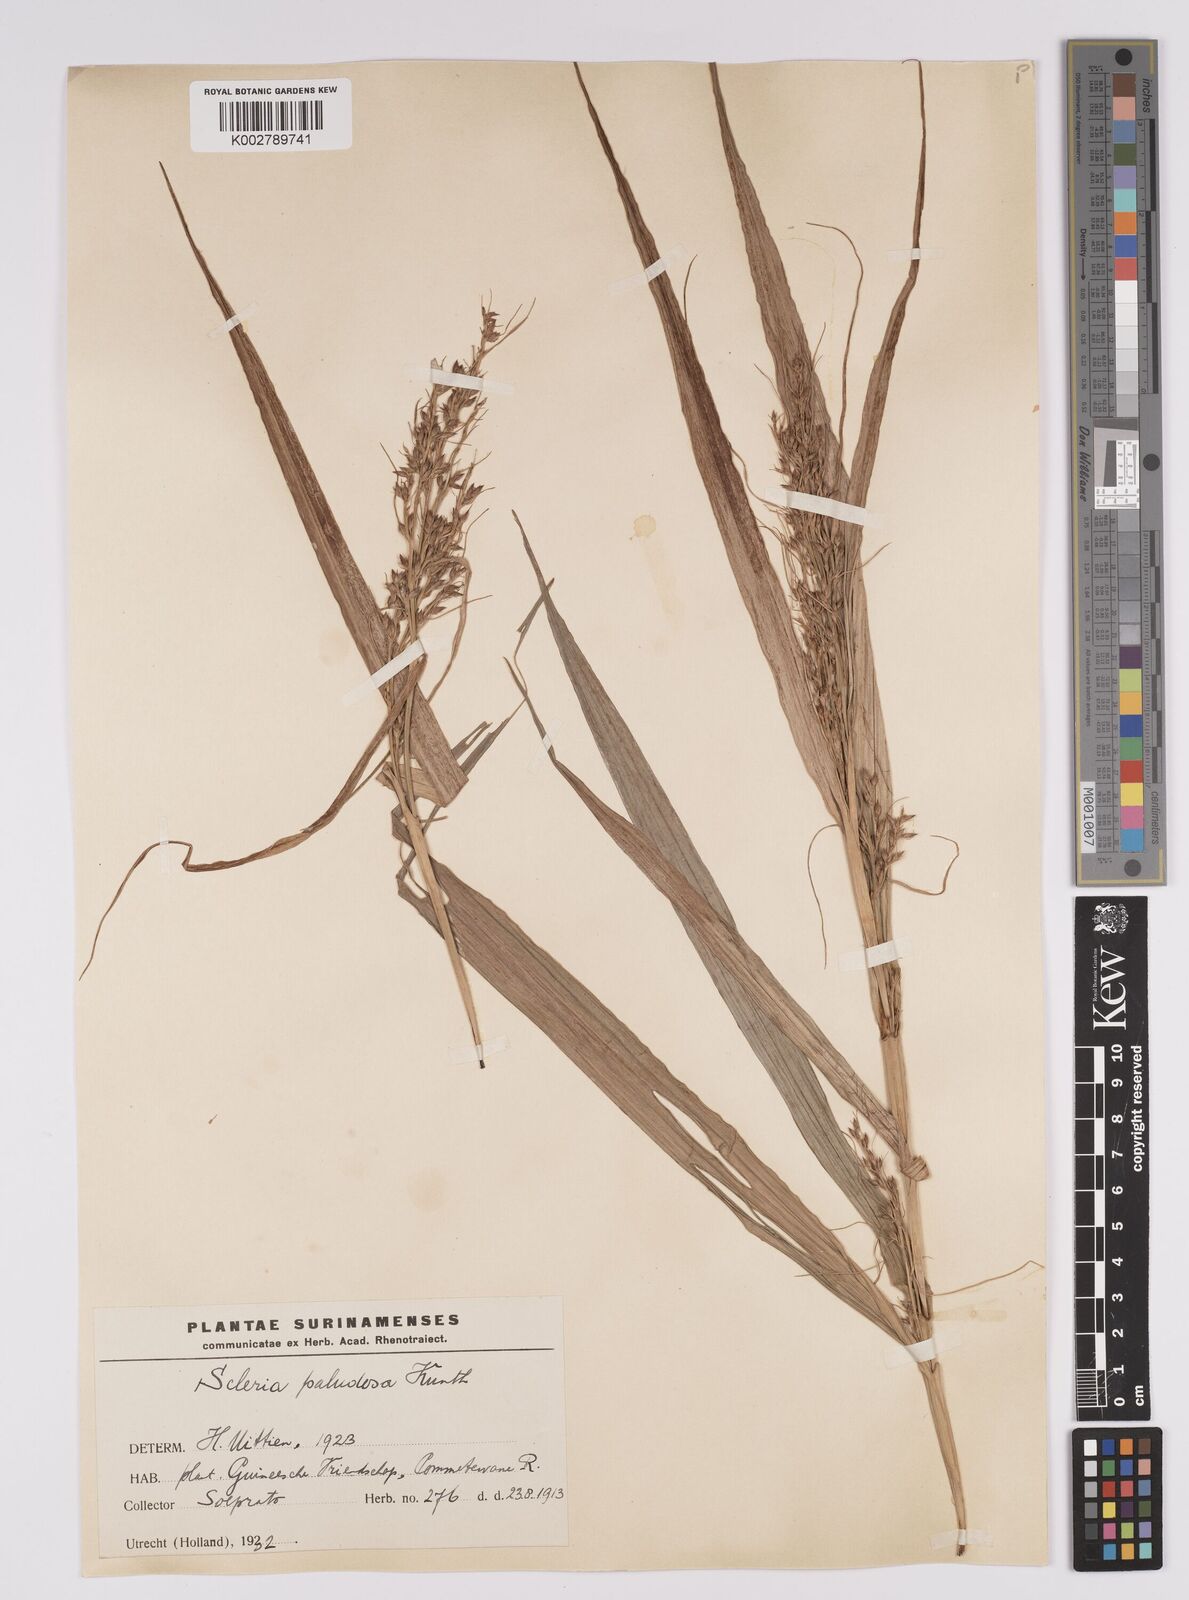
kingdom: Plantae
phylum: Tracheophyta
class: Liliopsida
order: Poales
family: Cyperaceae
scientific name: Cyperaceae
